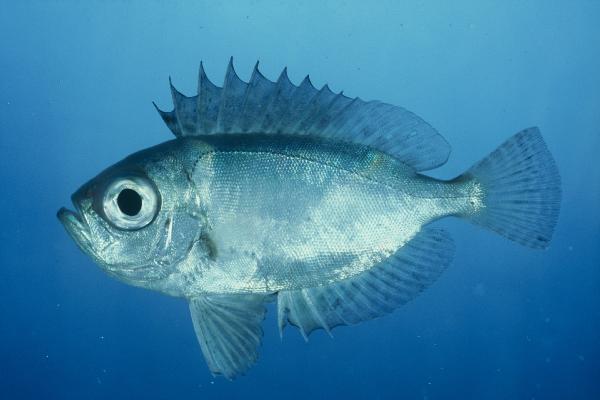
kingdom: Animalia
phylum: Chordata
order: Perciformes
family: Priacanthidae
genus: Heteropriacanthus
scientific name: Heteropriacanthus cruentatus
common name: Glasseye
